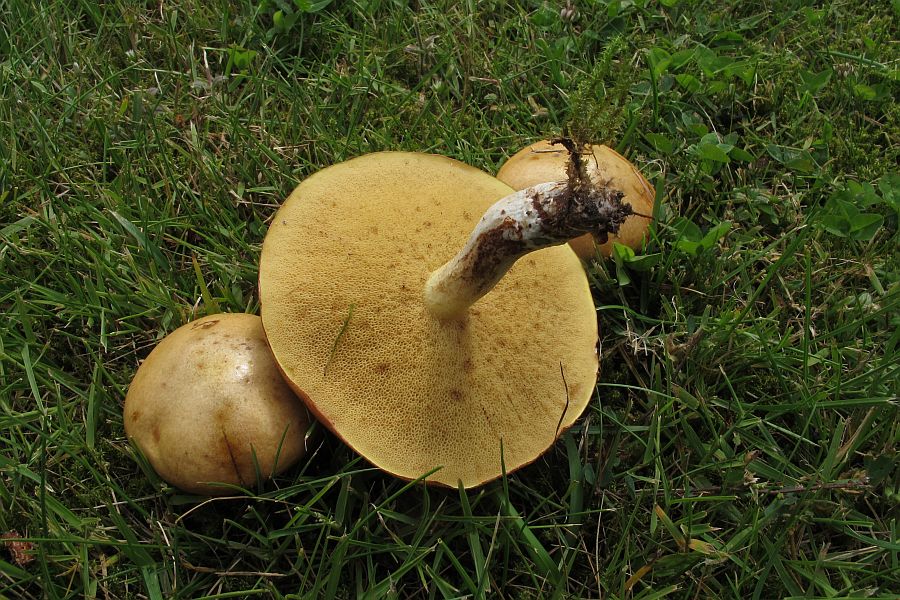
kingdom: Fungi
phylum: Basidiomycota
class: Agaricomycetes
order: Boletales
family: Suillaceae
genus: Suillus
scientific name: Suillus granulatus
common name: kornet slimrørhat
